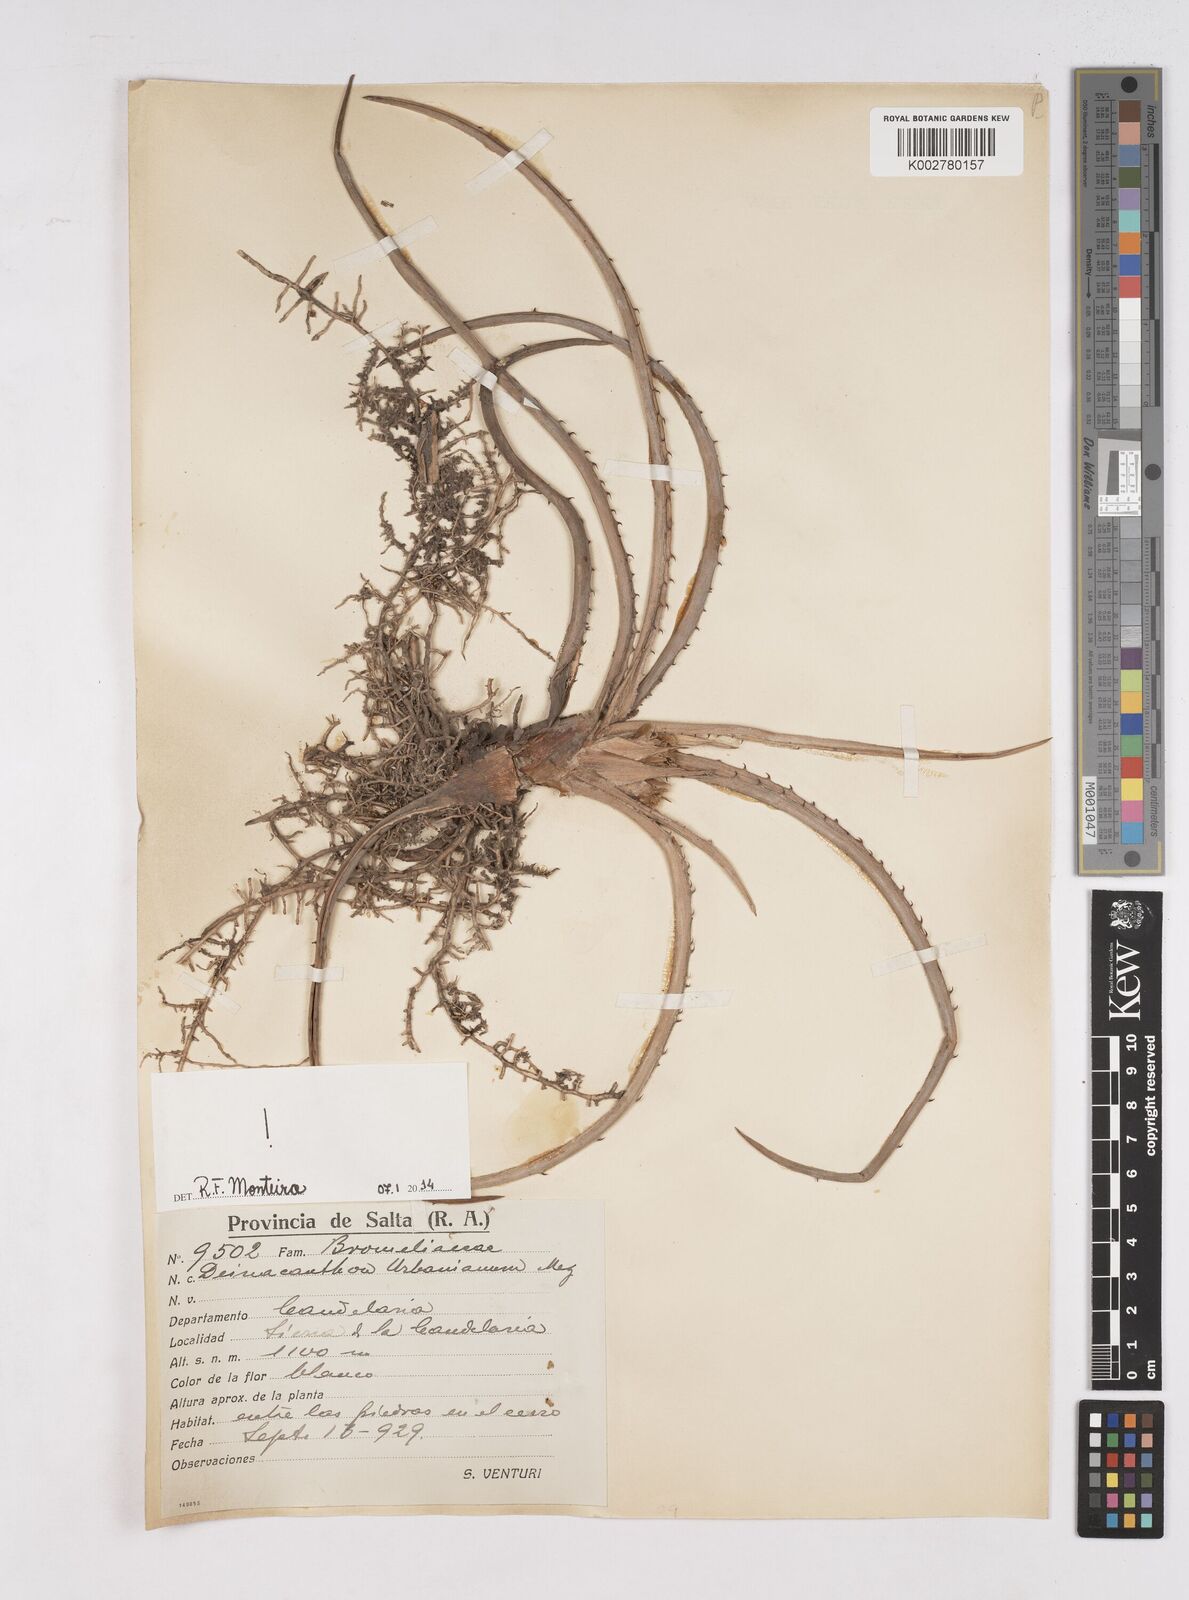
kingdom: Plantae
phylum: Tracheophyta
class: Liliopsida
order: Poales
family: Bromeliaceae
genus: Deinacanthon
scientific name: Deinacanthon urbanianum
